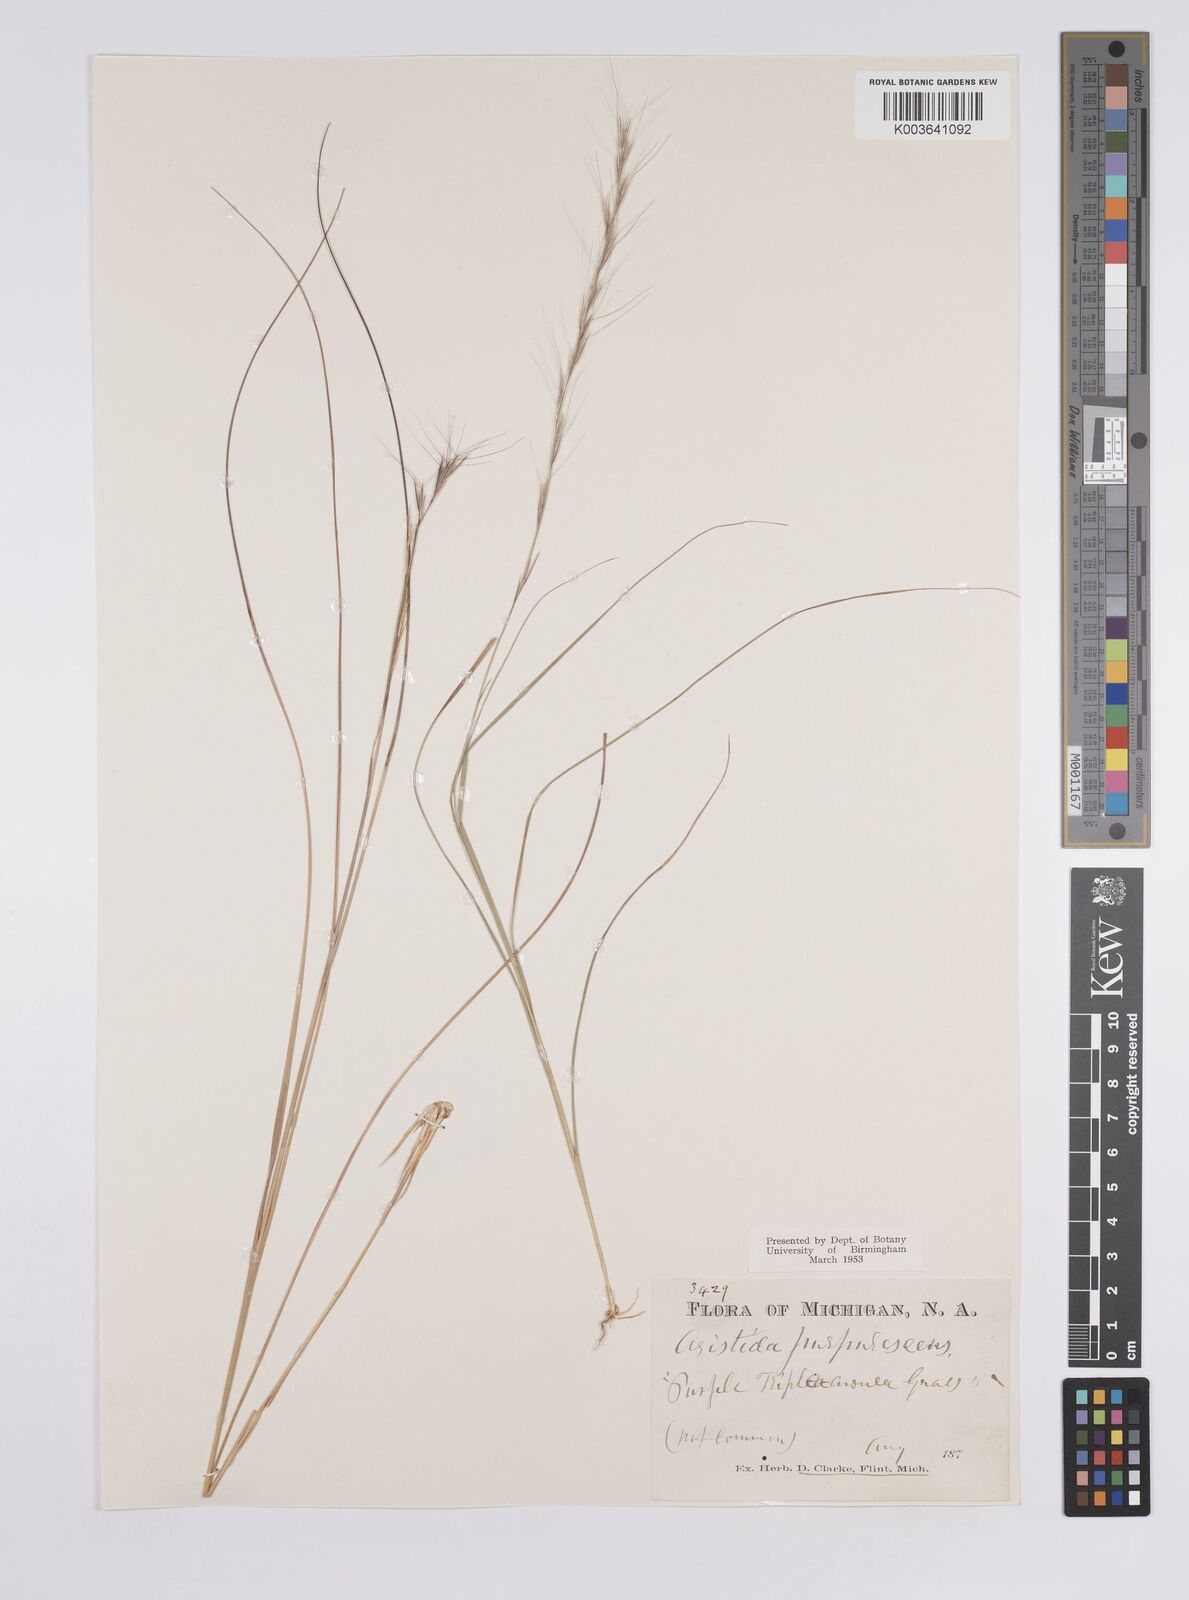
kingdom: Plantae
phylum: Tracheophyta
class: Liliopsida
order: Poales
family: Poaceae
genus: Aristida
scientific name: Aristida purpurascens
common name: Arrow-feather
